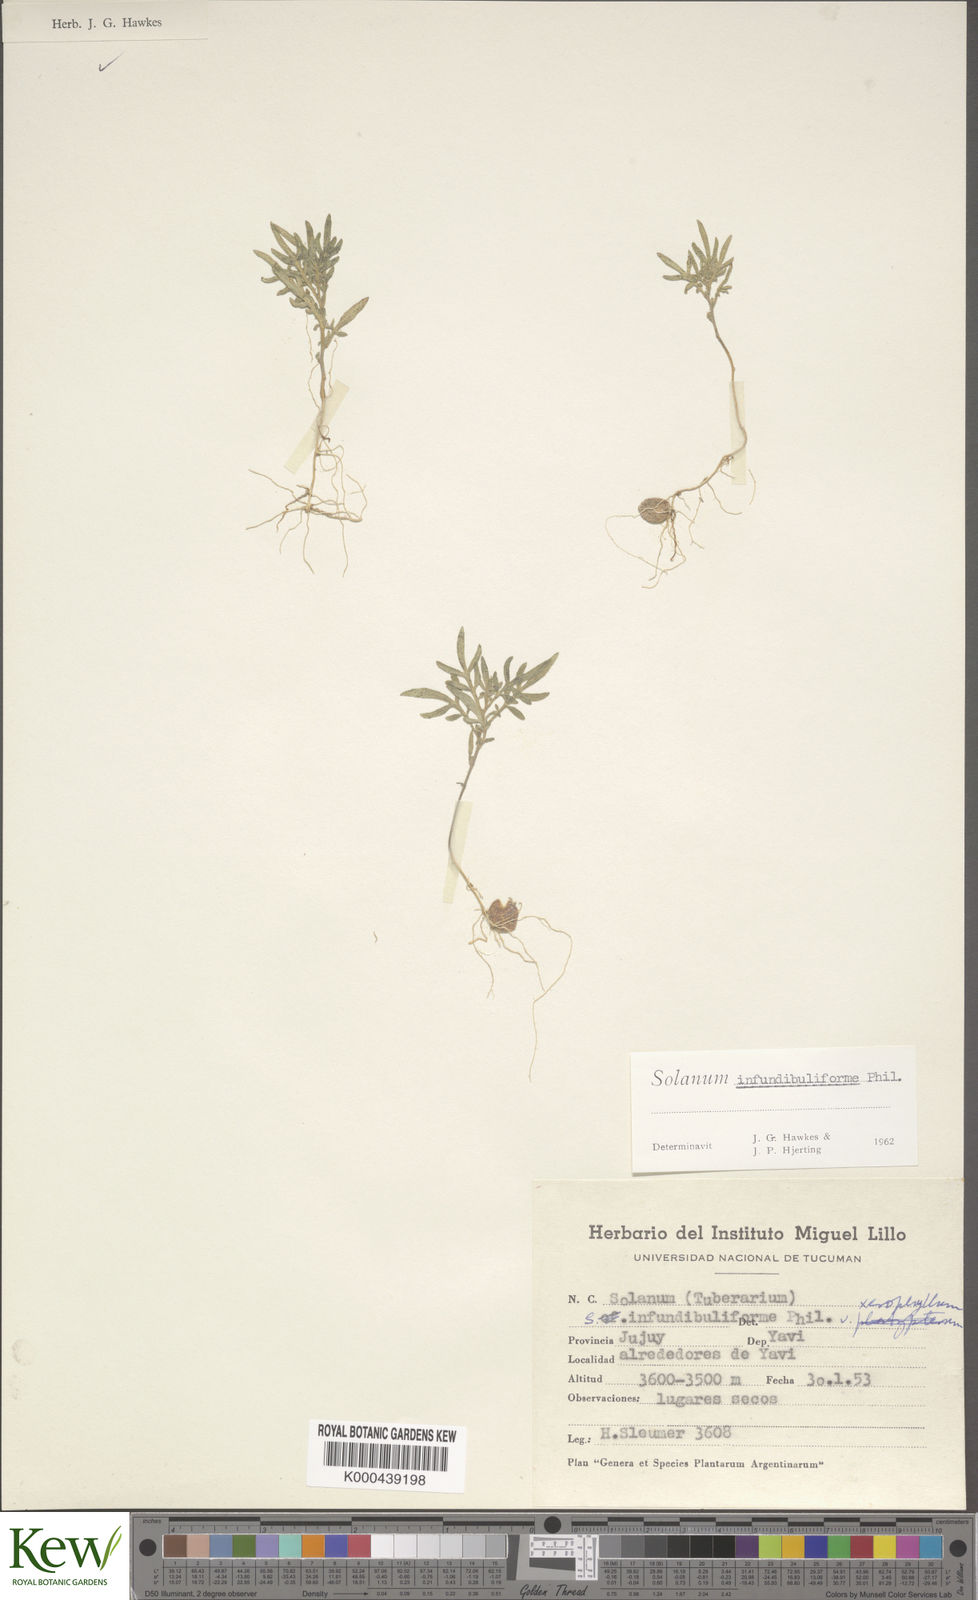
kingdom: Plantae
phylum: Tracheophyta
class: Magnoliopsida
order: Solanales
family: Solanaceae
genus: Solanum
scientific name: Solanum infundibuliforme
